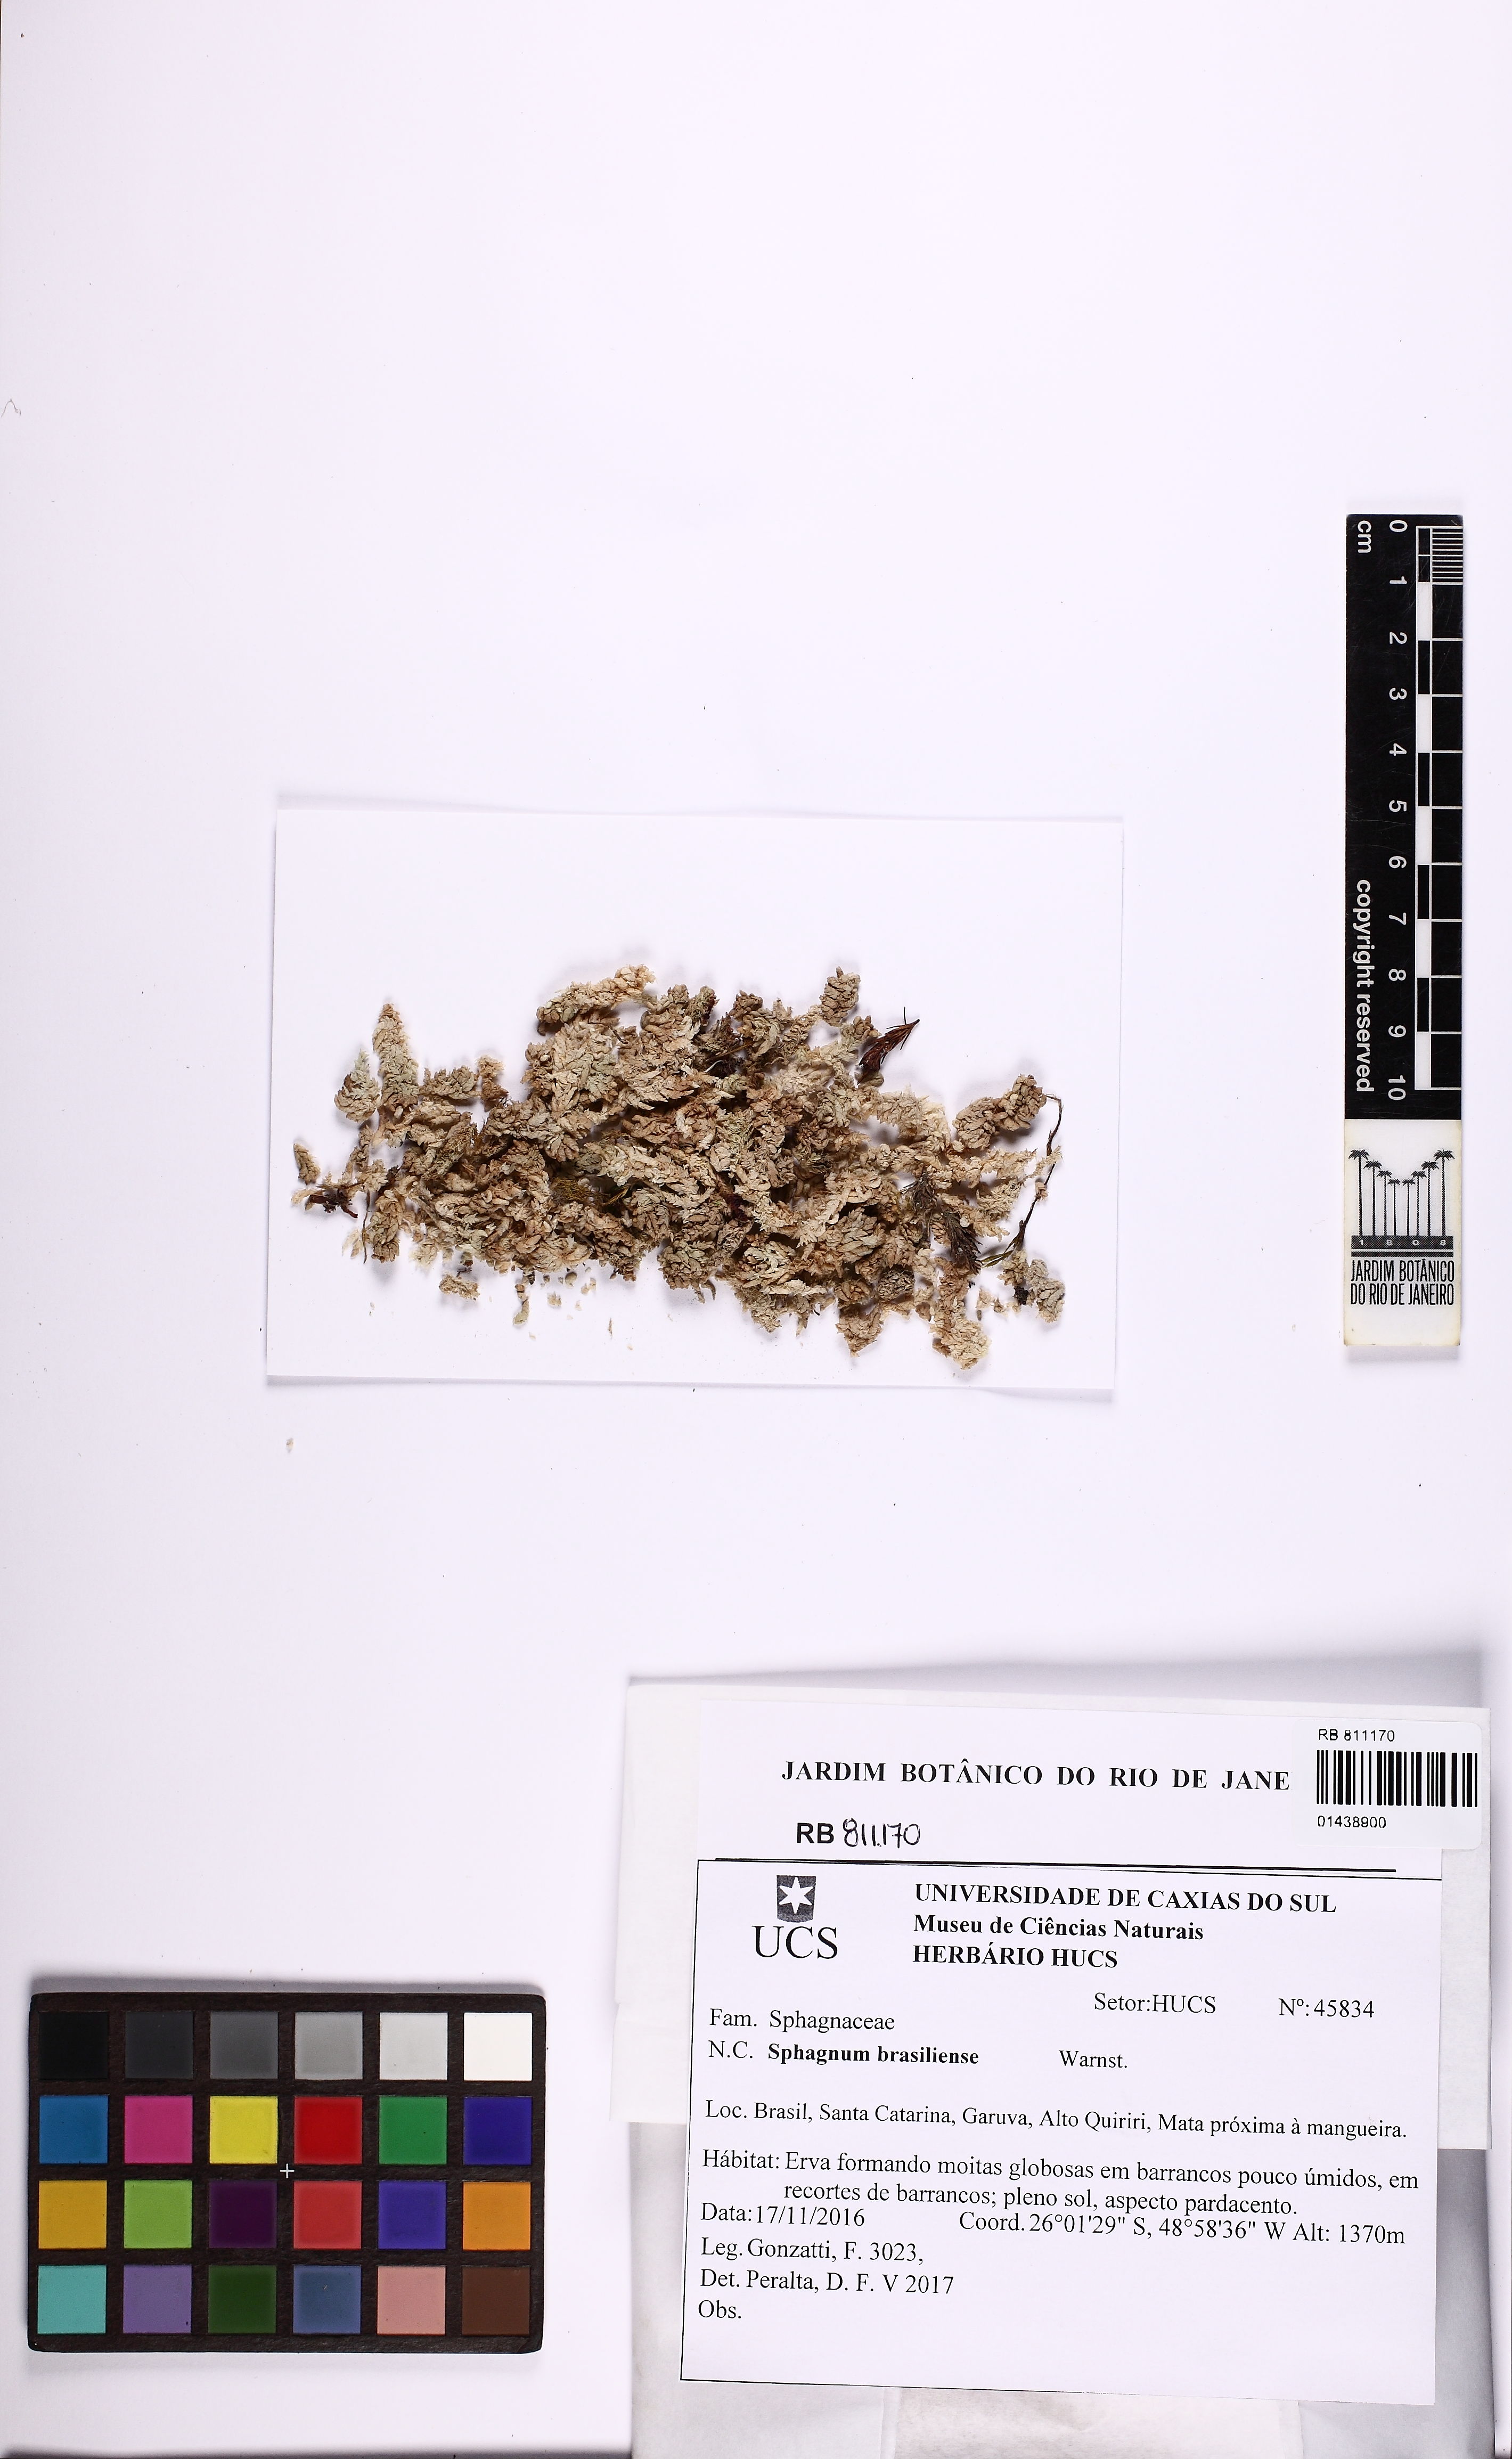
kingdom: Plantae
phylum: Bryophyta
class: Sphagnopsida
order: Sphagnales
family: Sphagnaceae
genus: Sphagnum
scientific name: Sphagnum brasiliense
